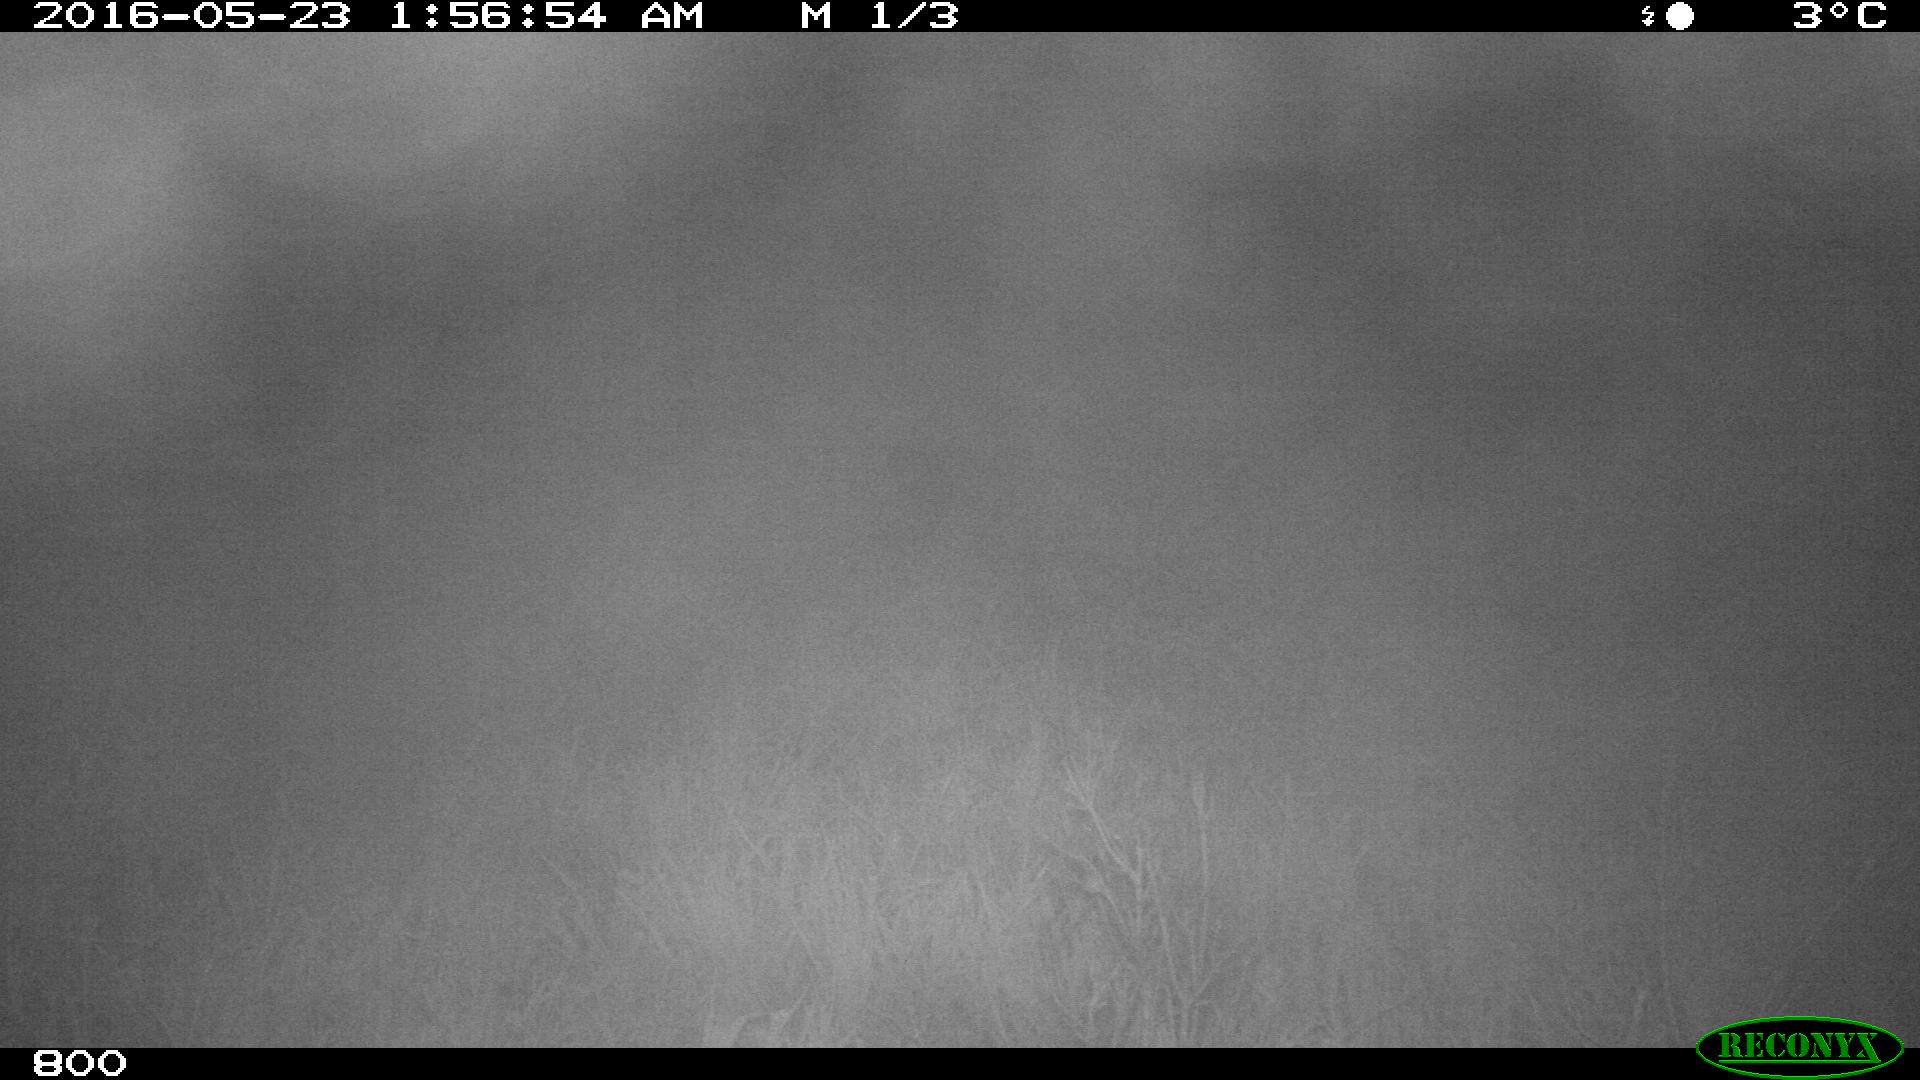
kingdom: Animalia
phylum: Chordata
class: Mammalia
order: Artiodactyla
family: Bovidae
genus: Bos
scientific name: Bos taurus
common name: Domesticated cattle
